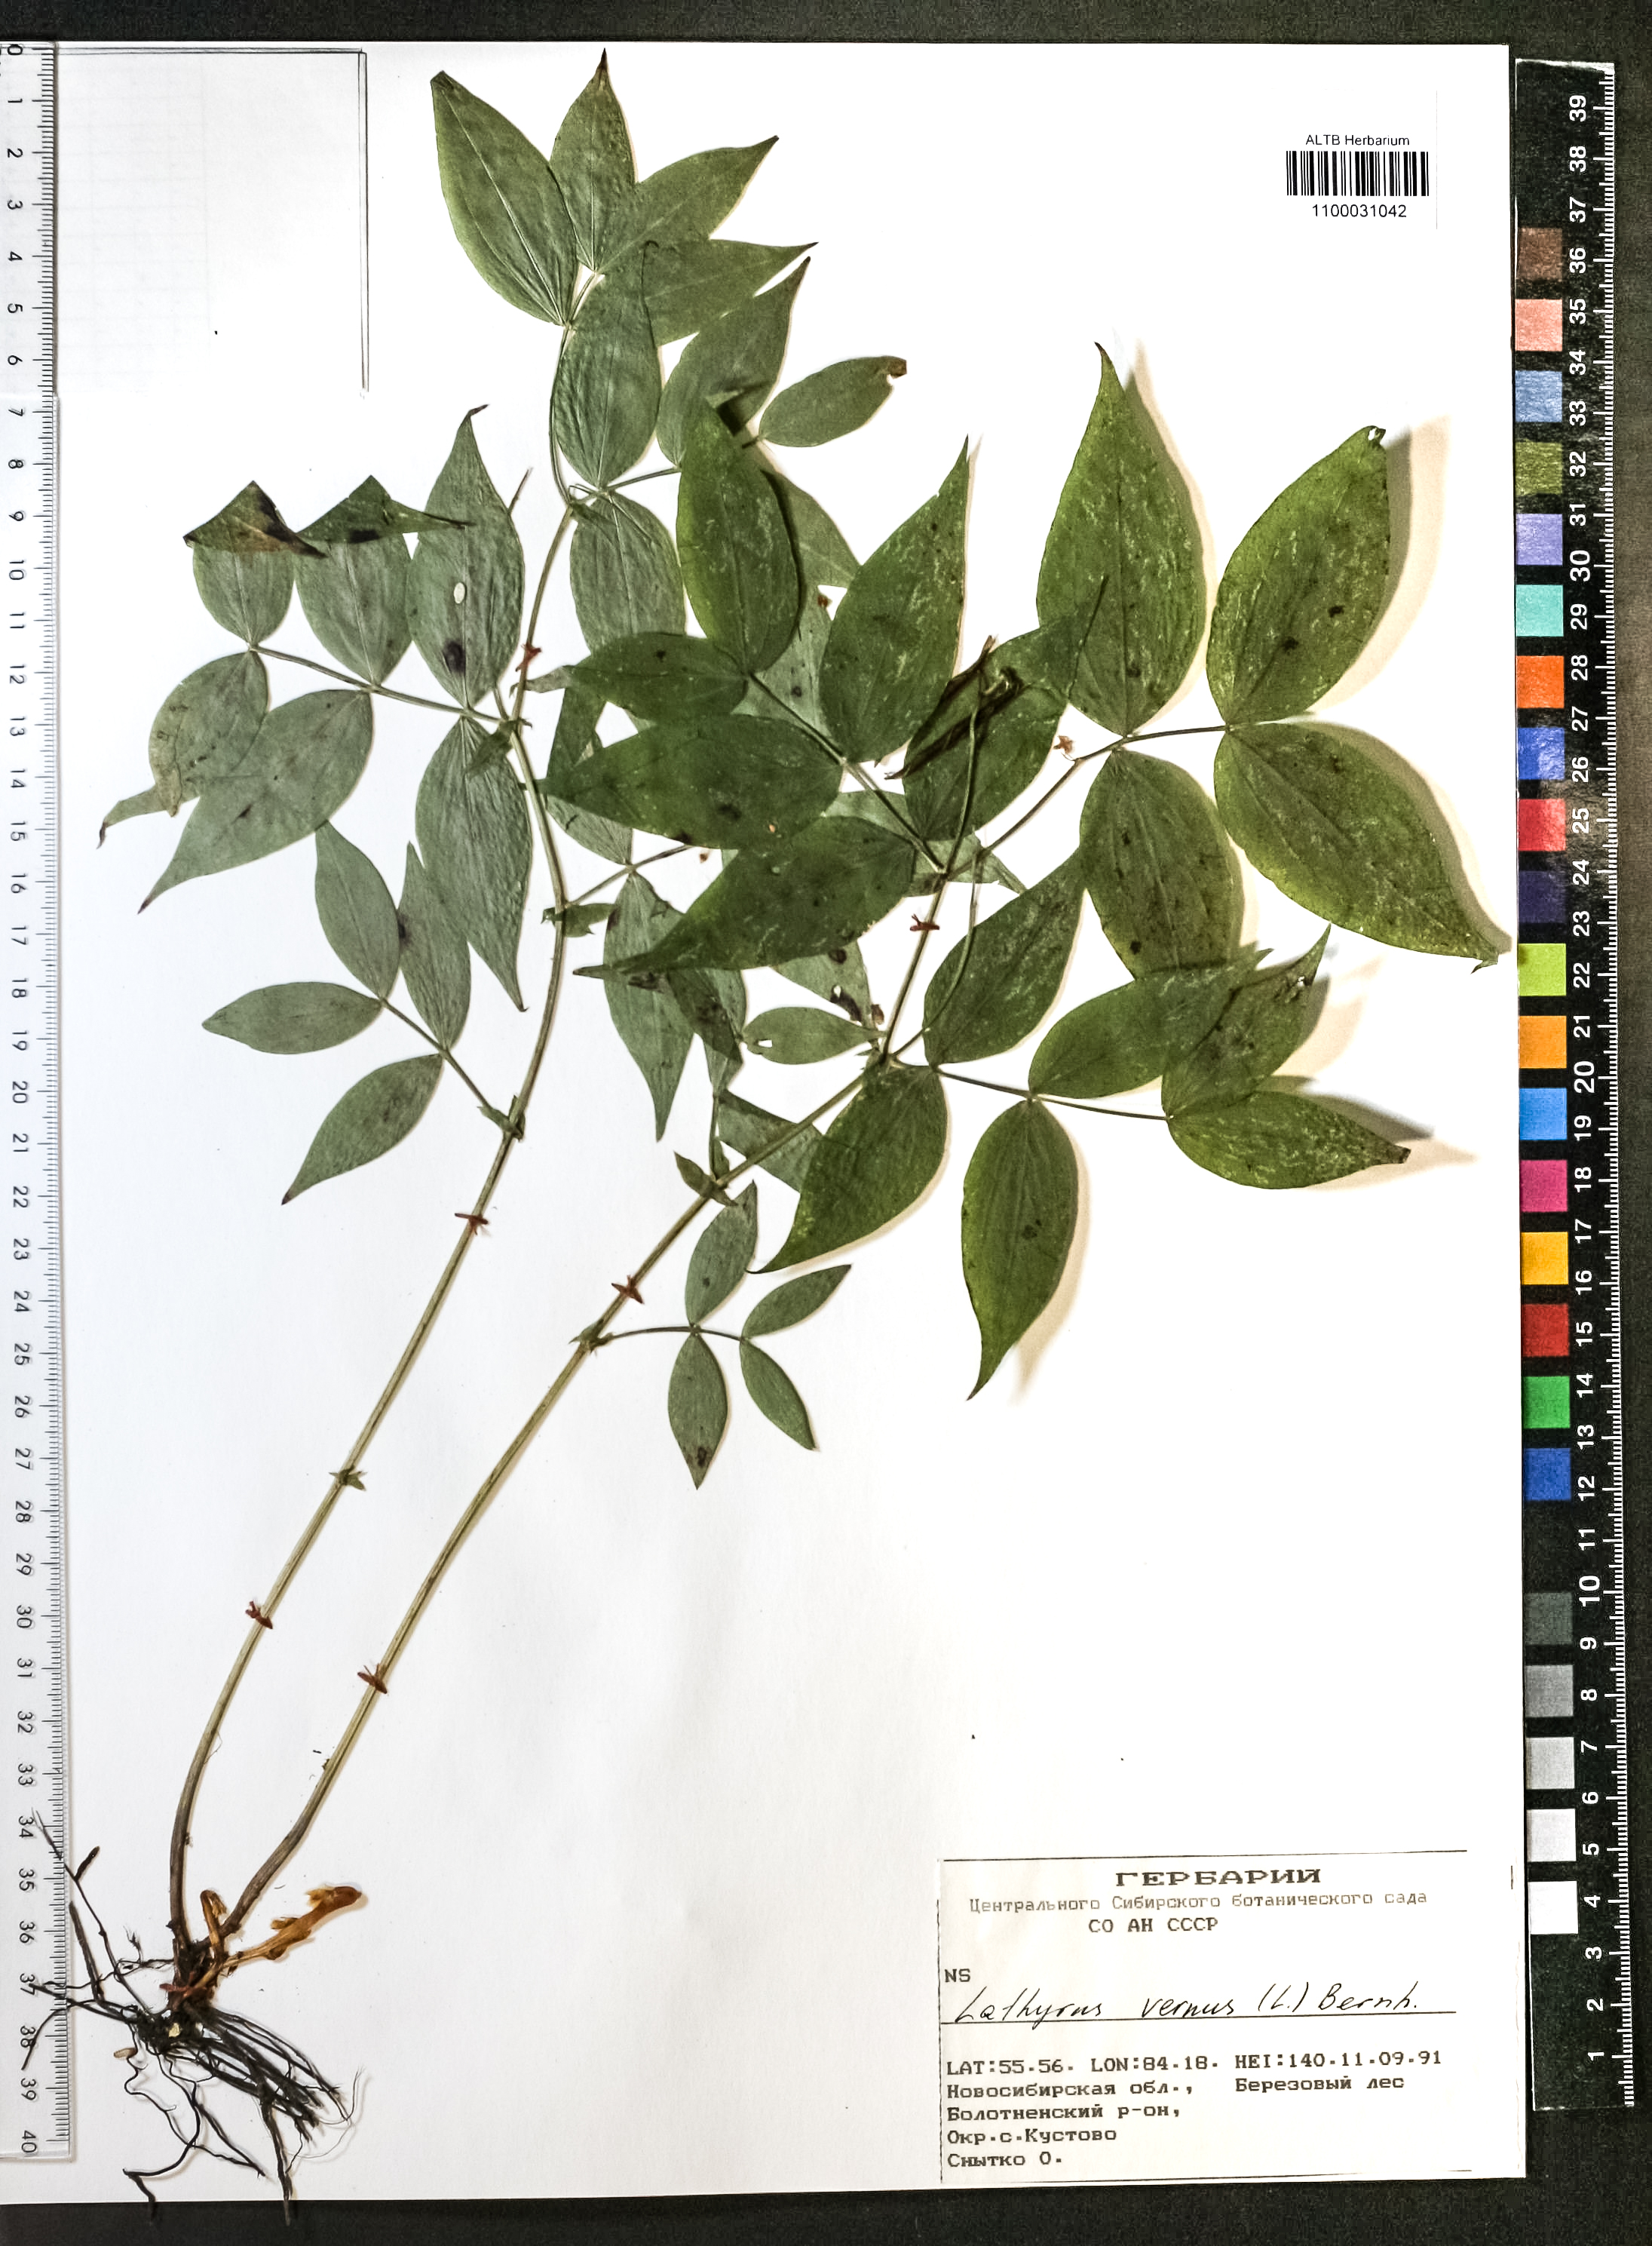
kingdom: Plantae
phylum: Tracheophyta
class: Magnoliopsida
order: Fabales
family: Fabaceae
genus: Lathyrus
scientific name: Lathyrus vernus
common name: Spring pea
